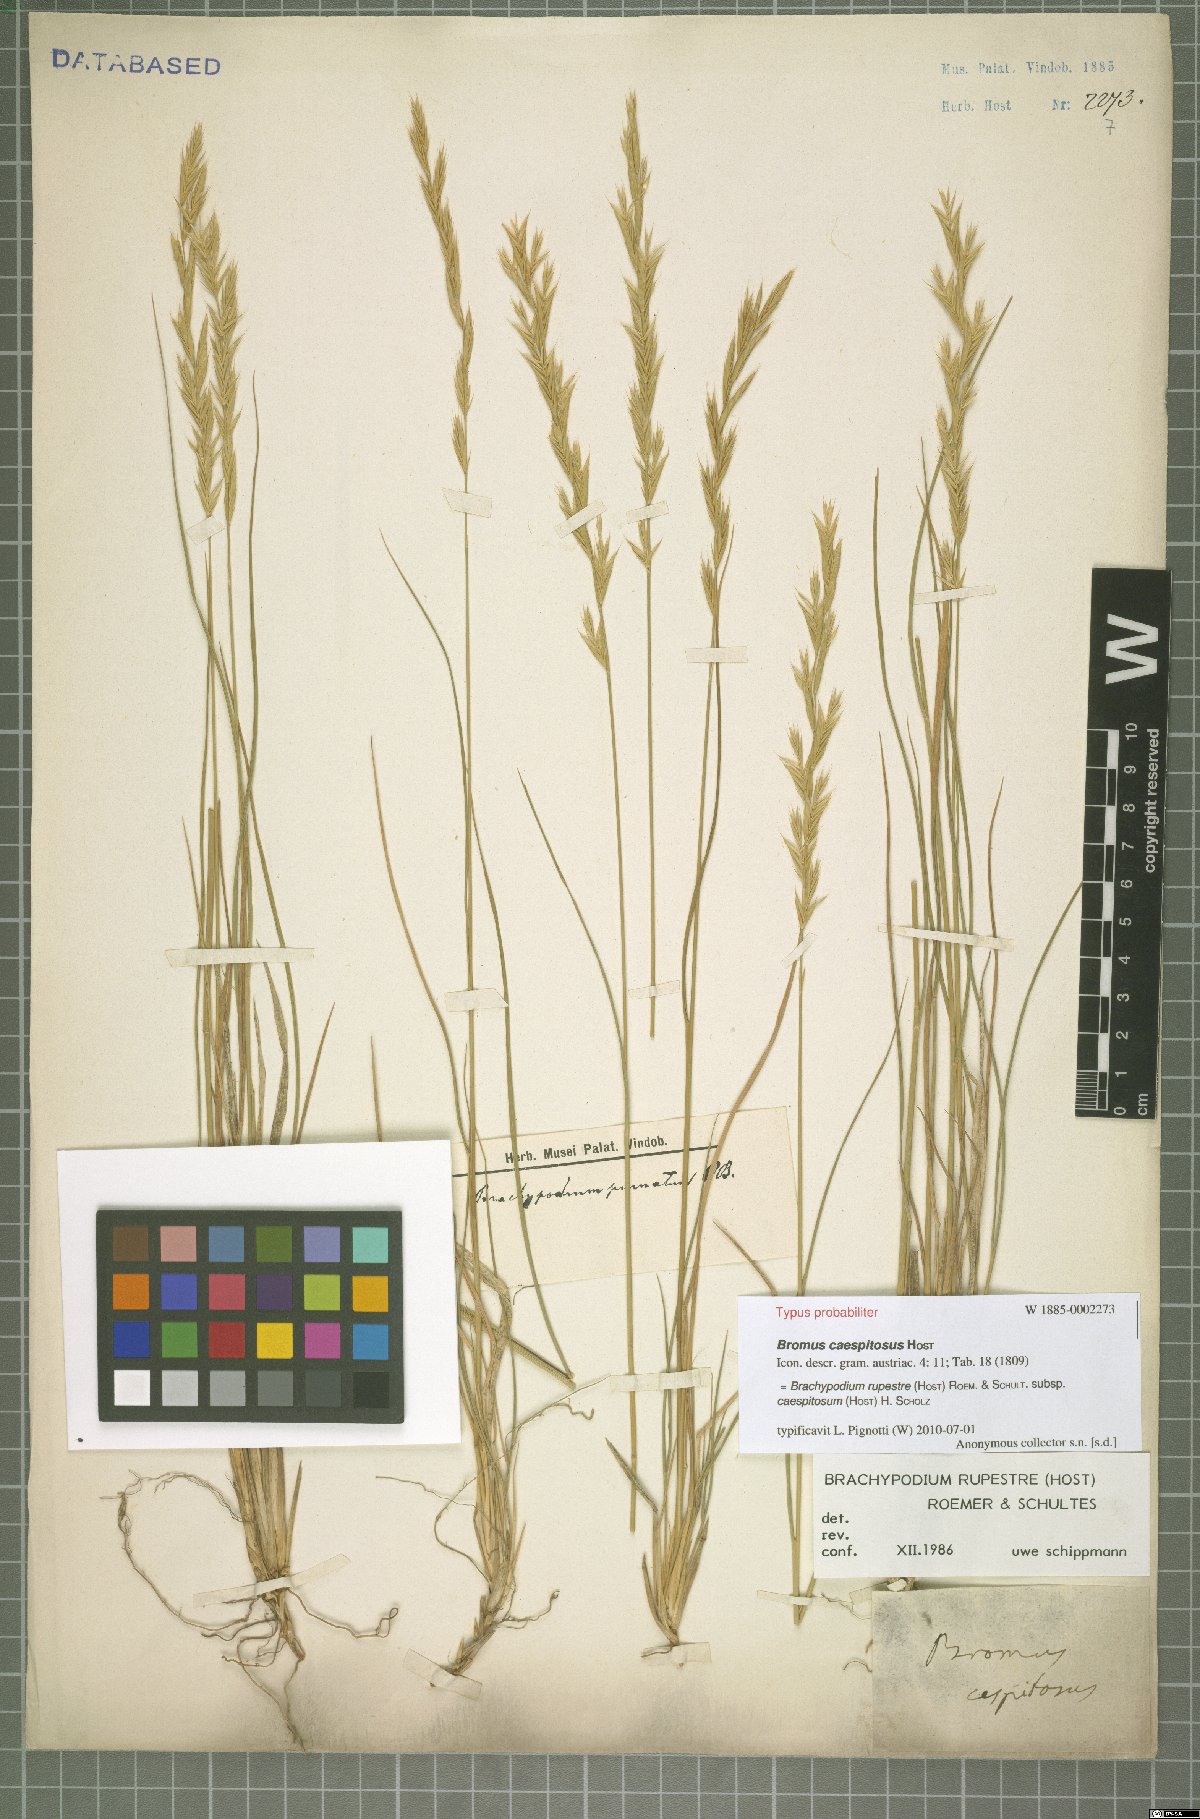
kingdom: Plantae
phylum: Tracheophyta
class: Liliopsida
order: Poales
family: Poaceae
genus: Brachypodium
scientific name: Brachypodium pinnatum
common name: Tor grass
